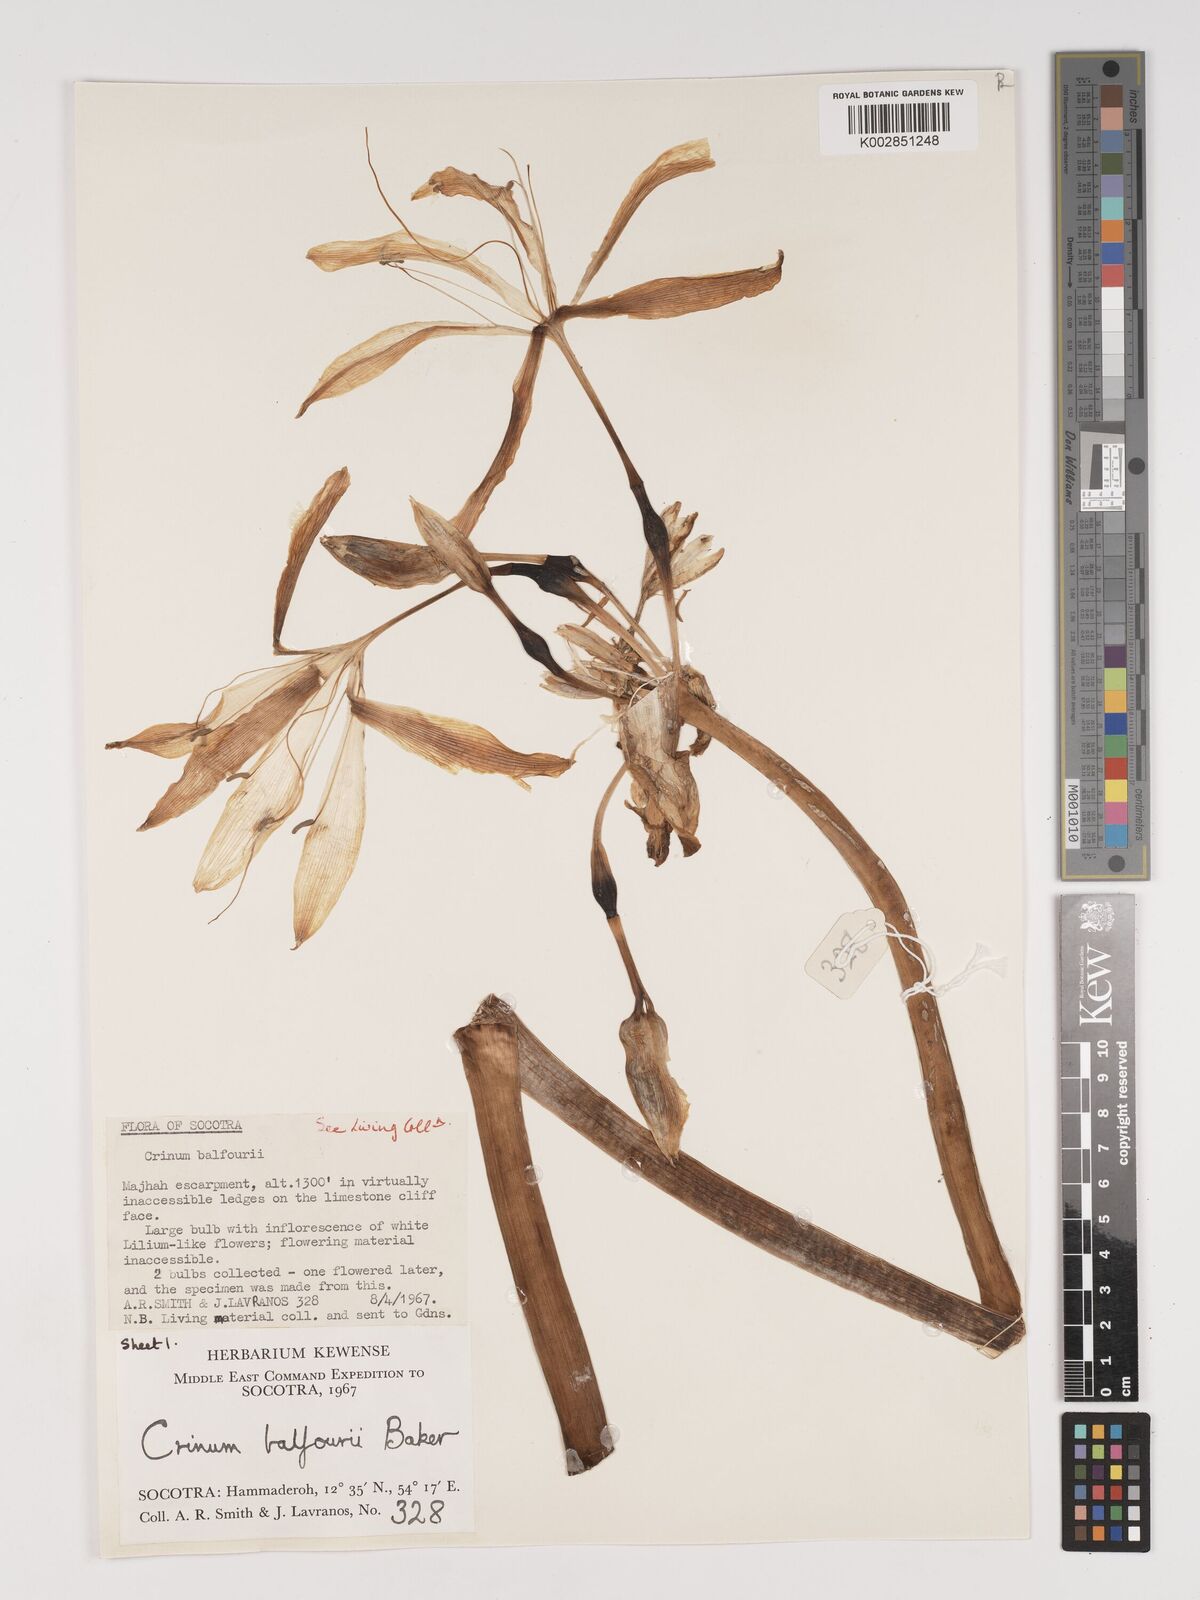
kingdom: Plantae
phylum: Tracheophyta
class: Liliopsida
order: Asparagales
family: Amaryllidaceae
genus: Crinum
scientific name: Crinum balfourii
